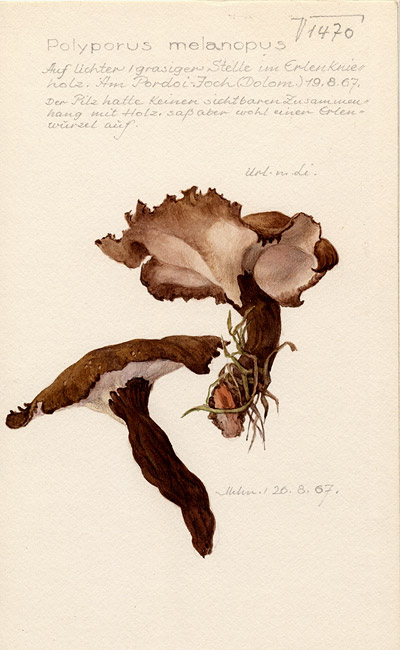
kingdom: Fungi
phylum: Basidiomycota
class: Agaricomycetes
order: Polyporales
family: Polyporaceae
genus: Picipes
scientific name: Picipes melanopus
